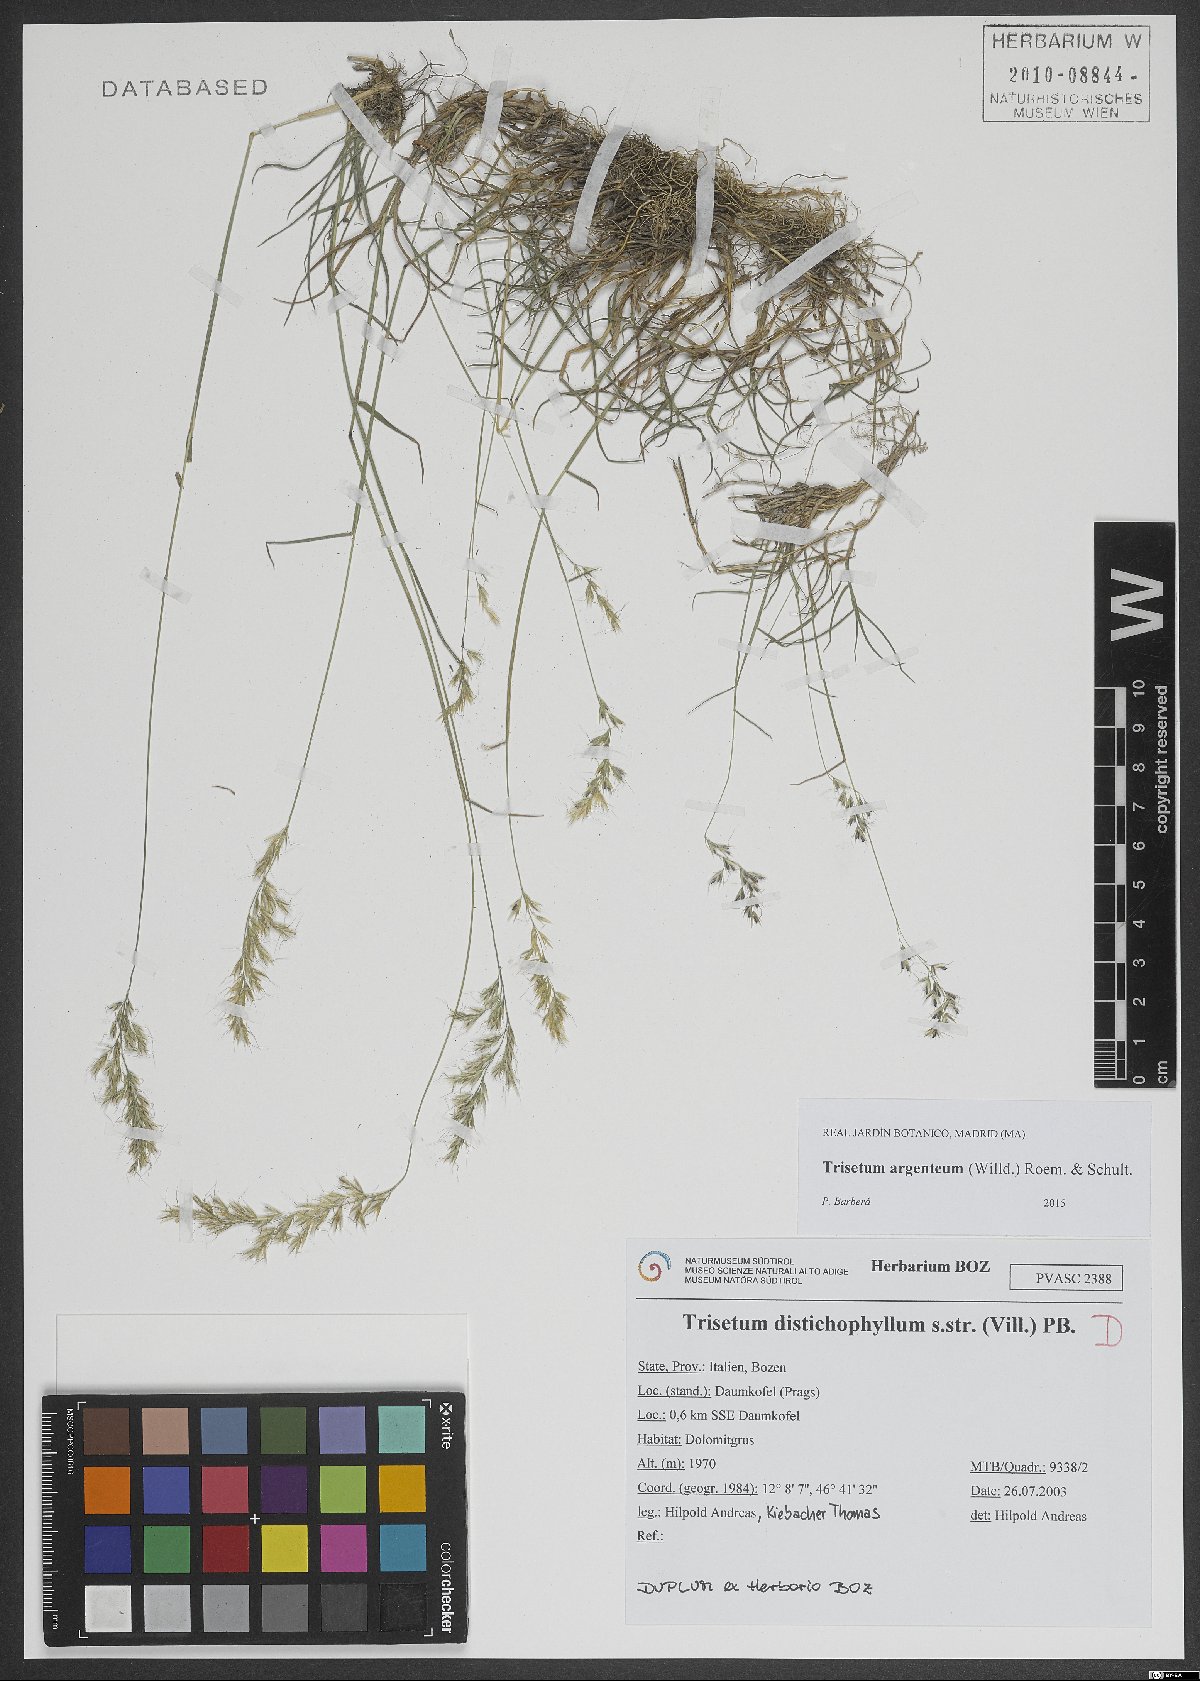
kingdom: Plantae
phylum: Tracheophyta
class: Liliopsida
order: Poales
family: Poaceae
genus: Trisetum
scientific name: Trisetum argenteum
